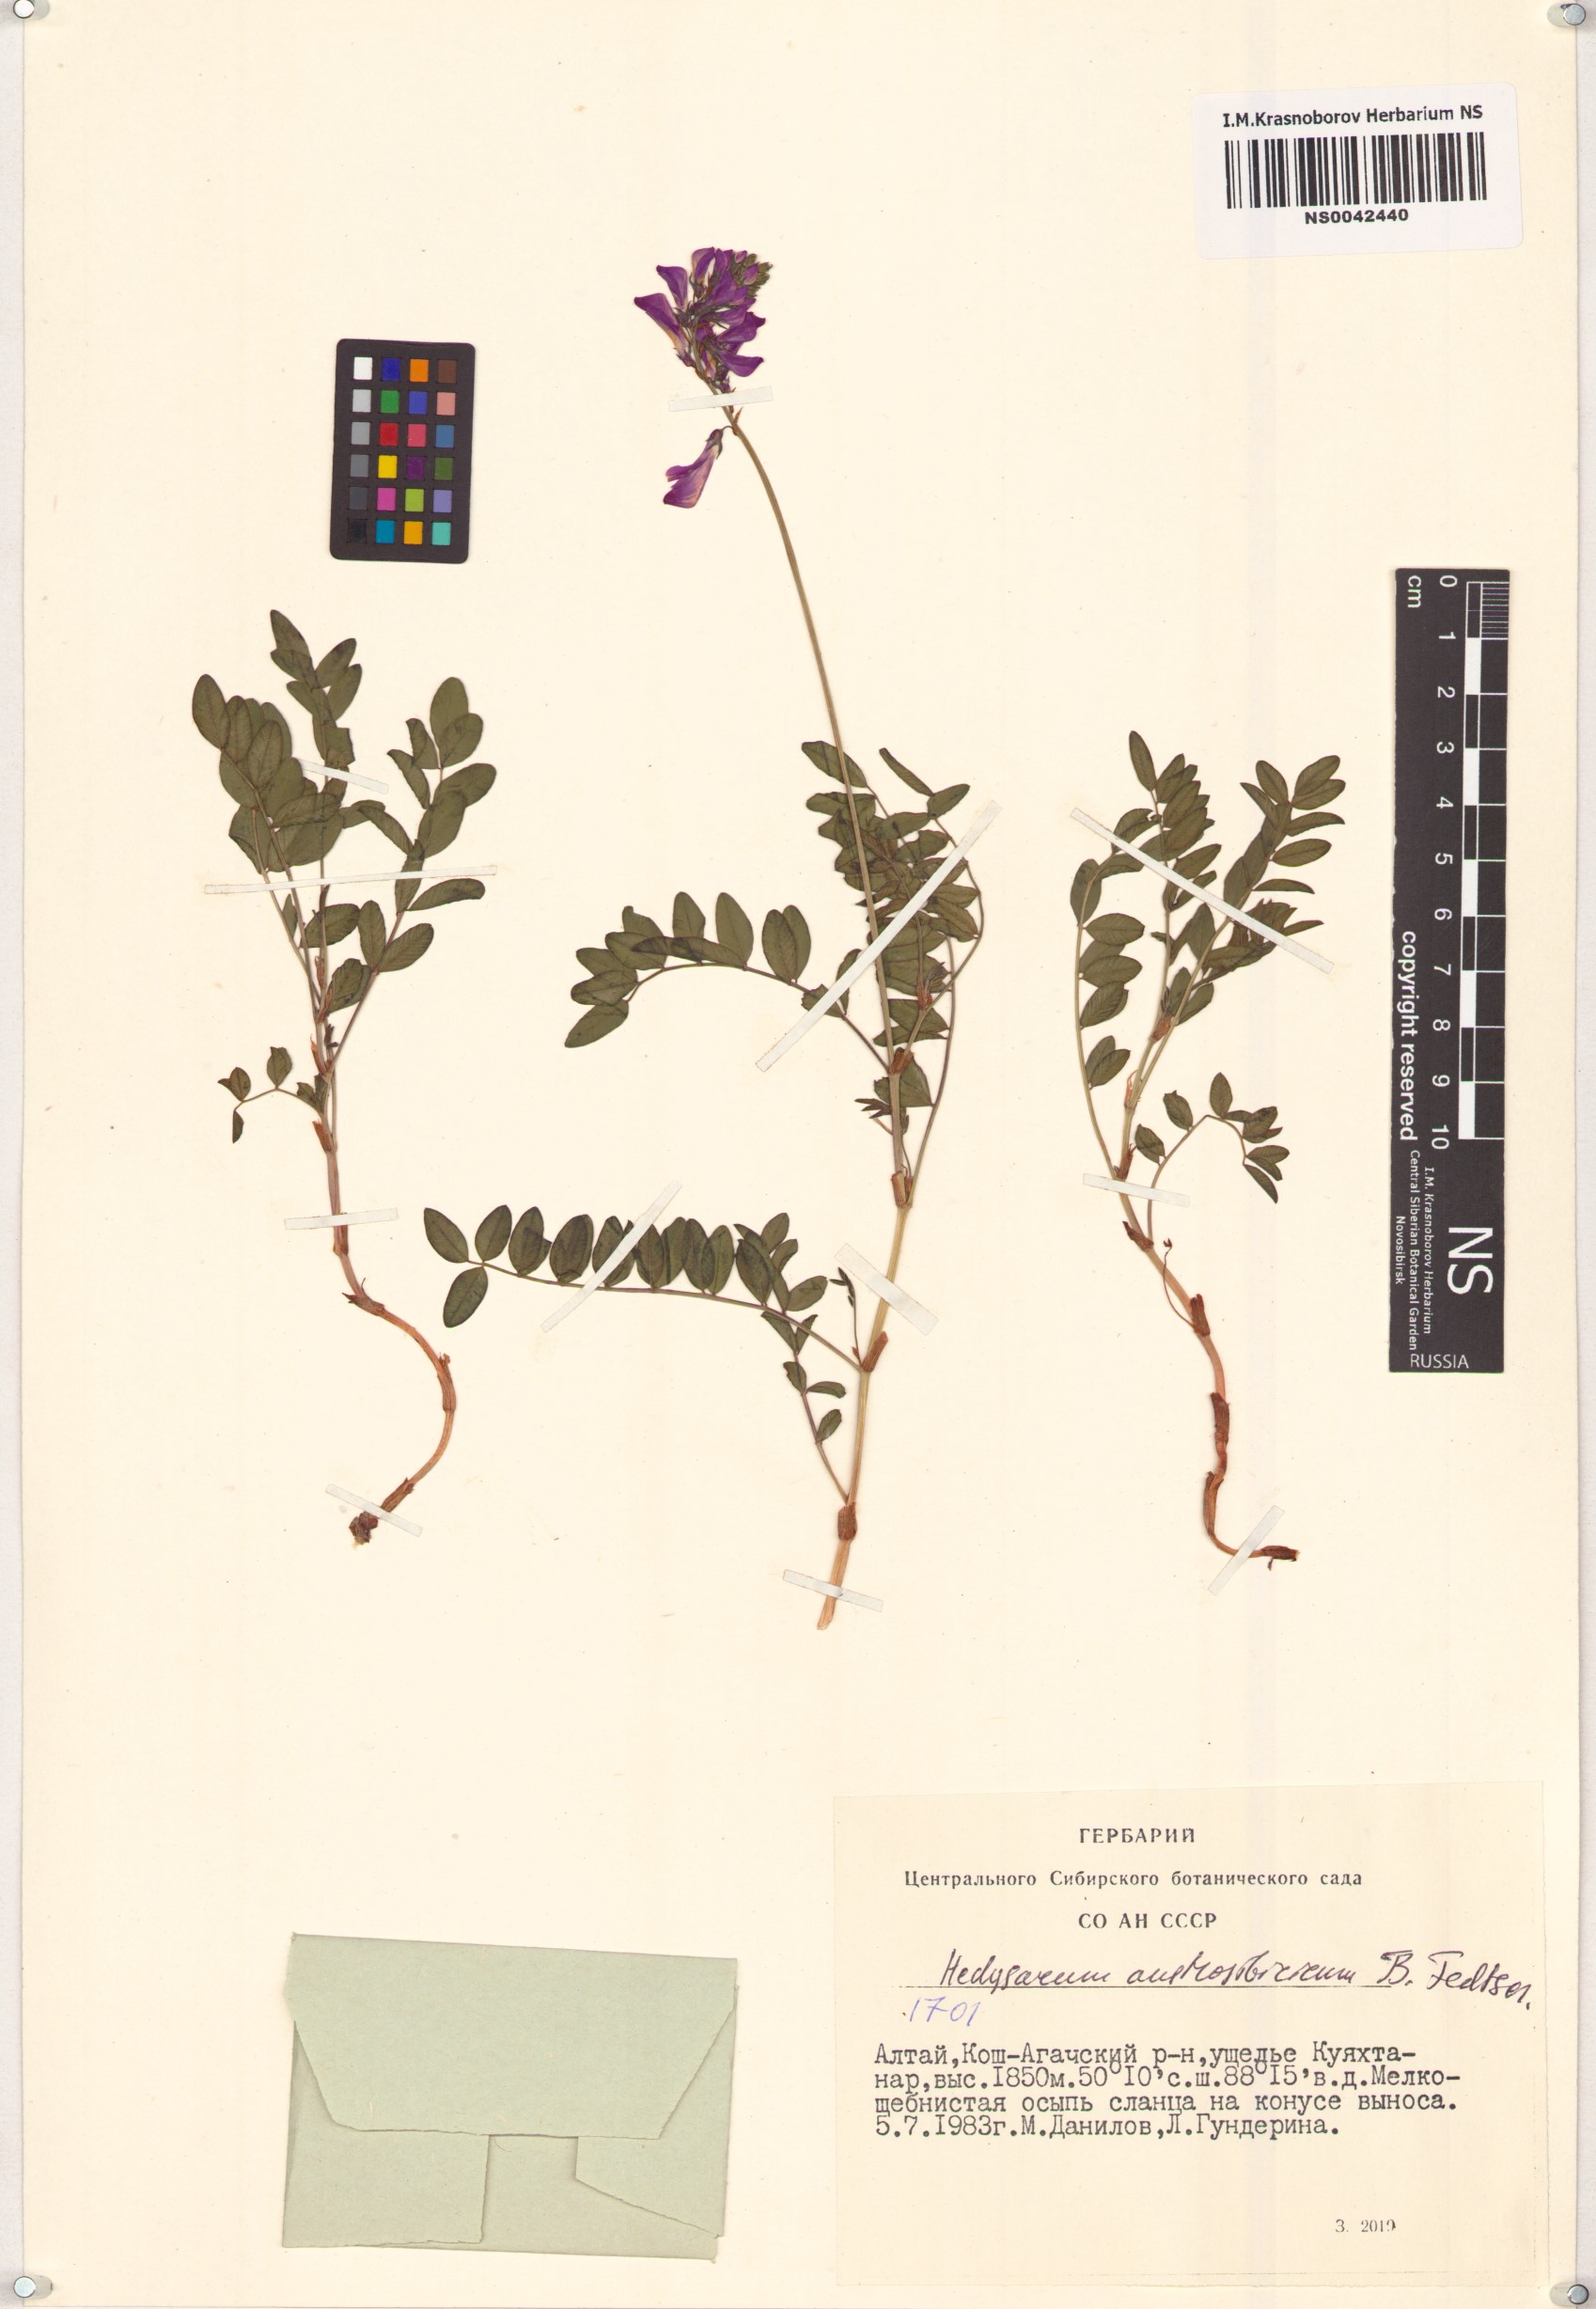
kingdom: Plantae
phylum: Tracheophyta
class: Magnoliopsida
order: Fabales
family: Fabaceae
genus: Hedysarum
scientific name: Hedysarum neglectum
